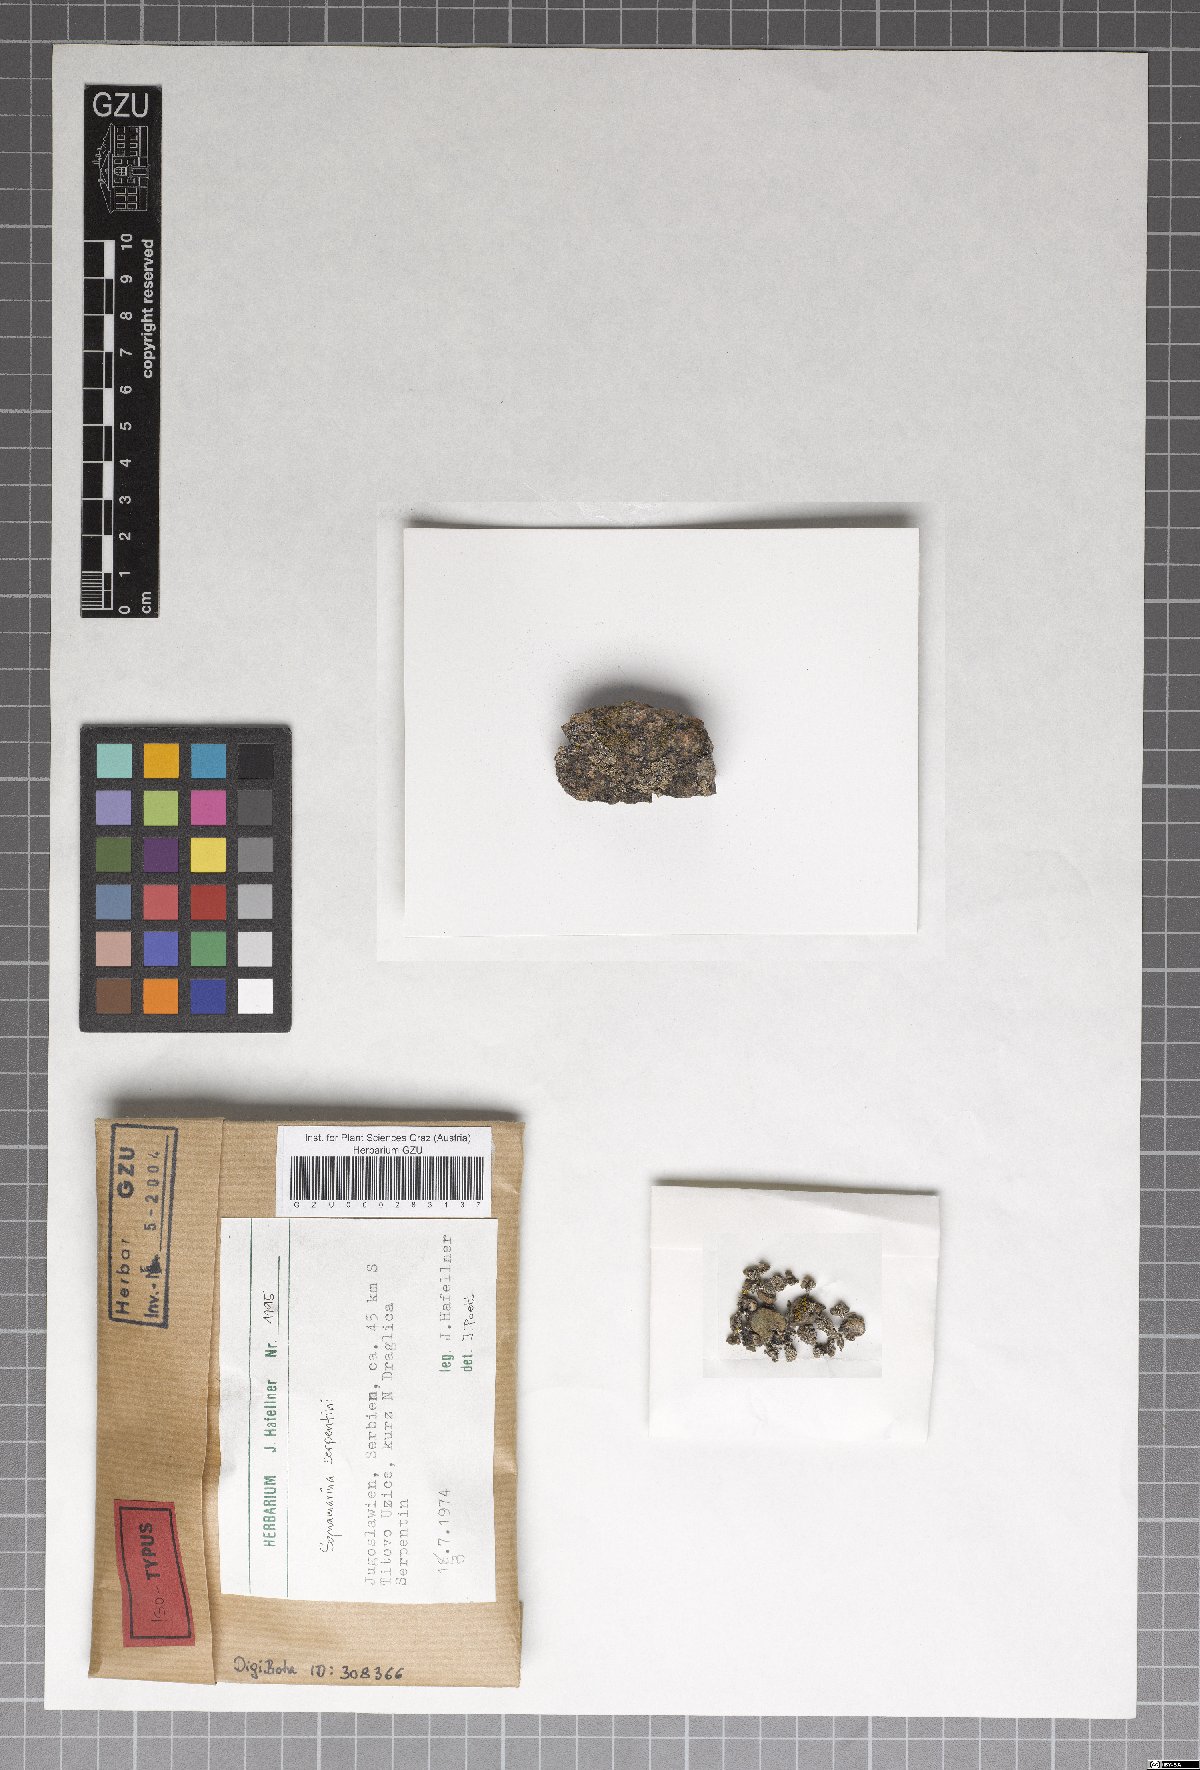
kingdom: Fungi
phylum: Ascomycota
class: Lecanoromycetes
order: Lecanorales
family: Stereocaulaceae
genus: Squamarina
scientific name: Squamarina serpentini
